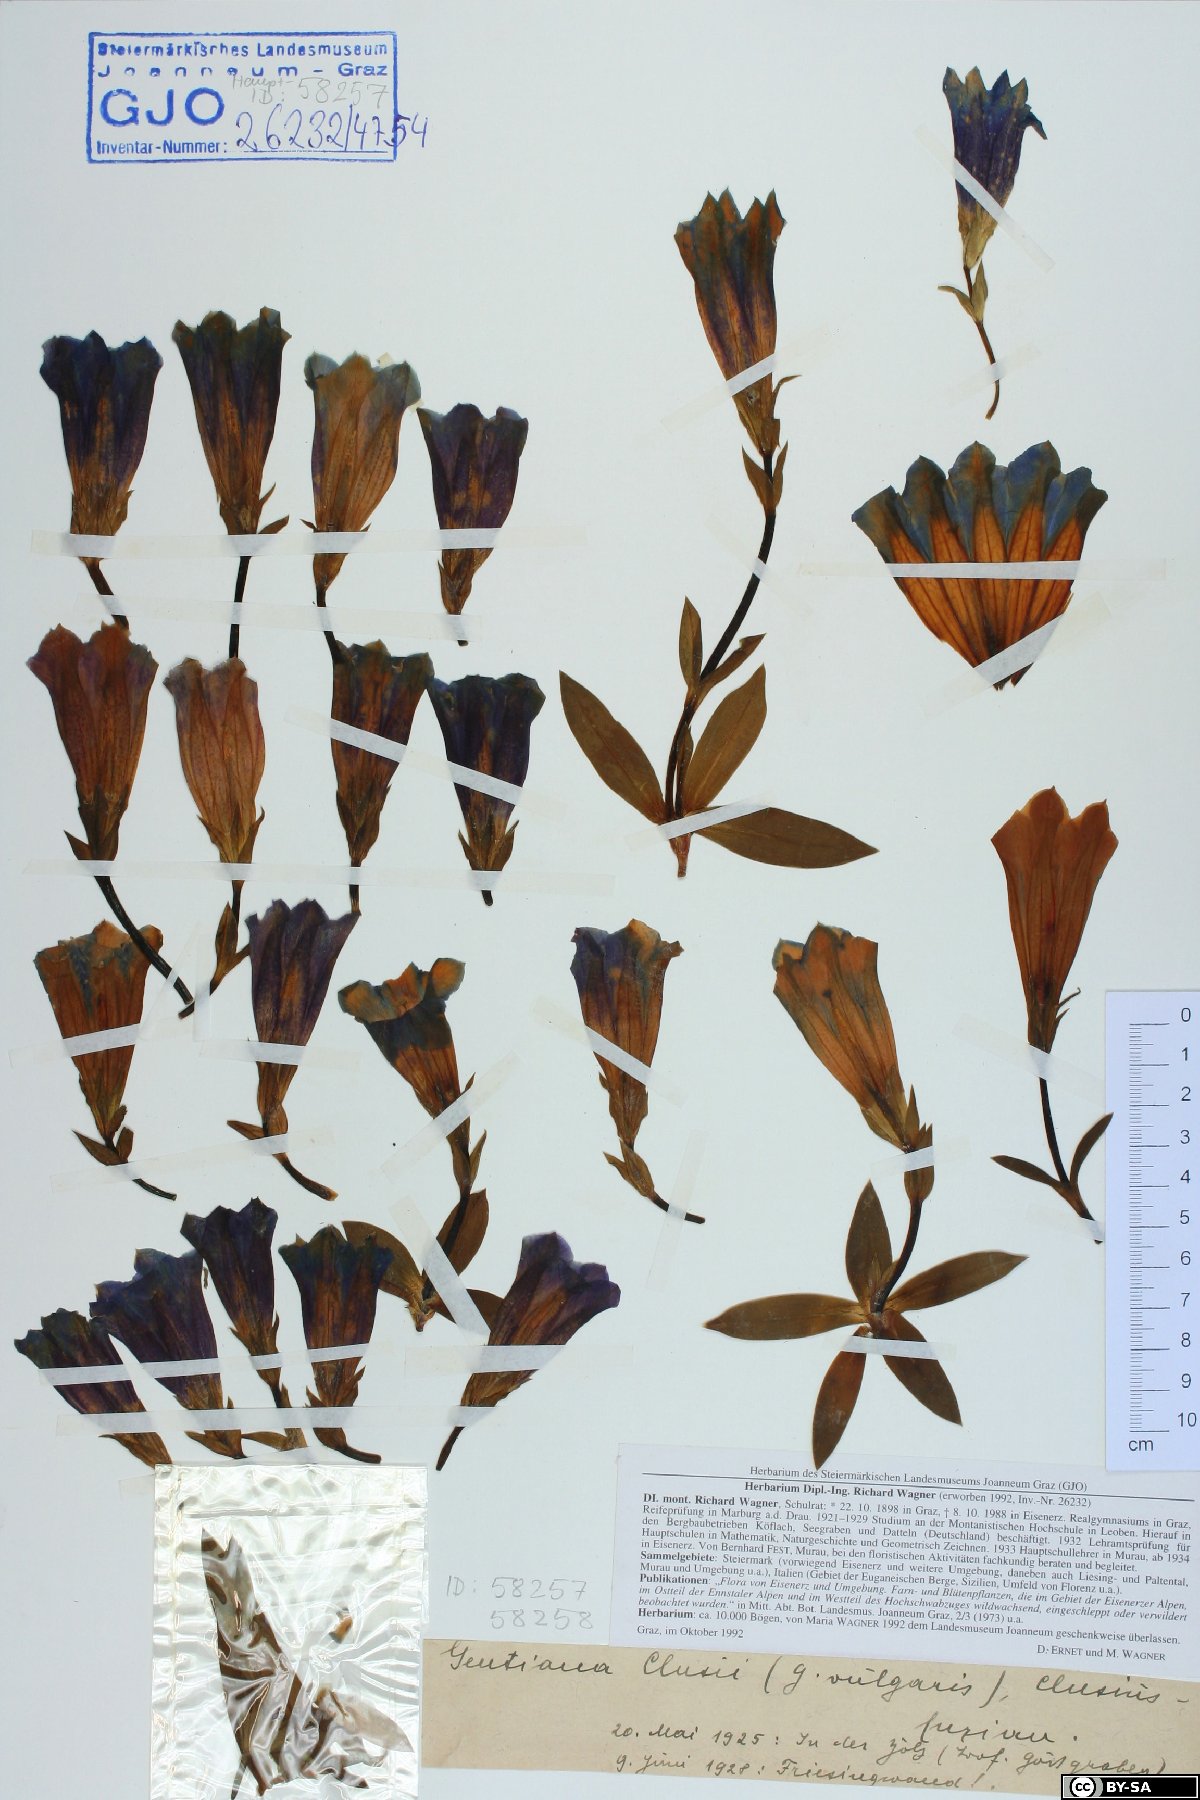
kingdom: Plantae
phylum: Tracheophyta
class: Magnoliopsida
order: Gentianales
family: Gentianaceae
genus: Gentiana
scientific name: Gentiana clusii
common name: Trumpet gentian
